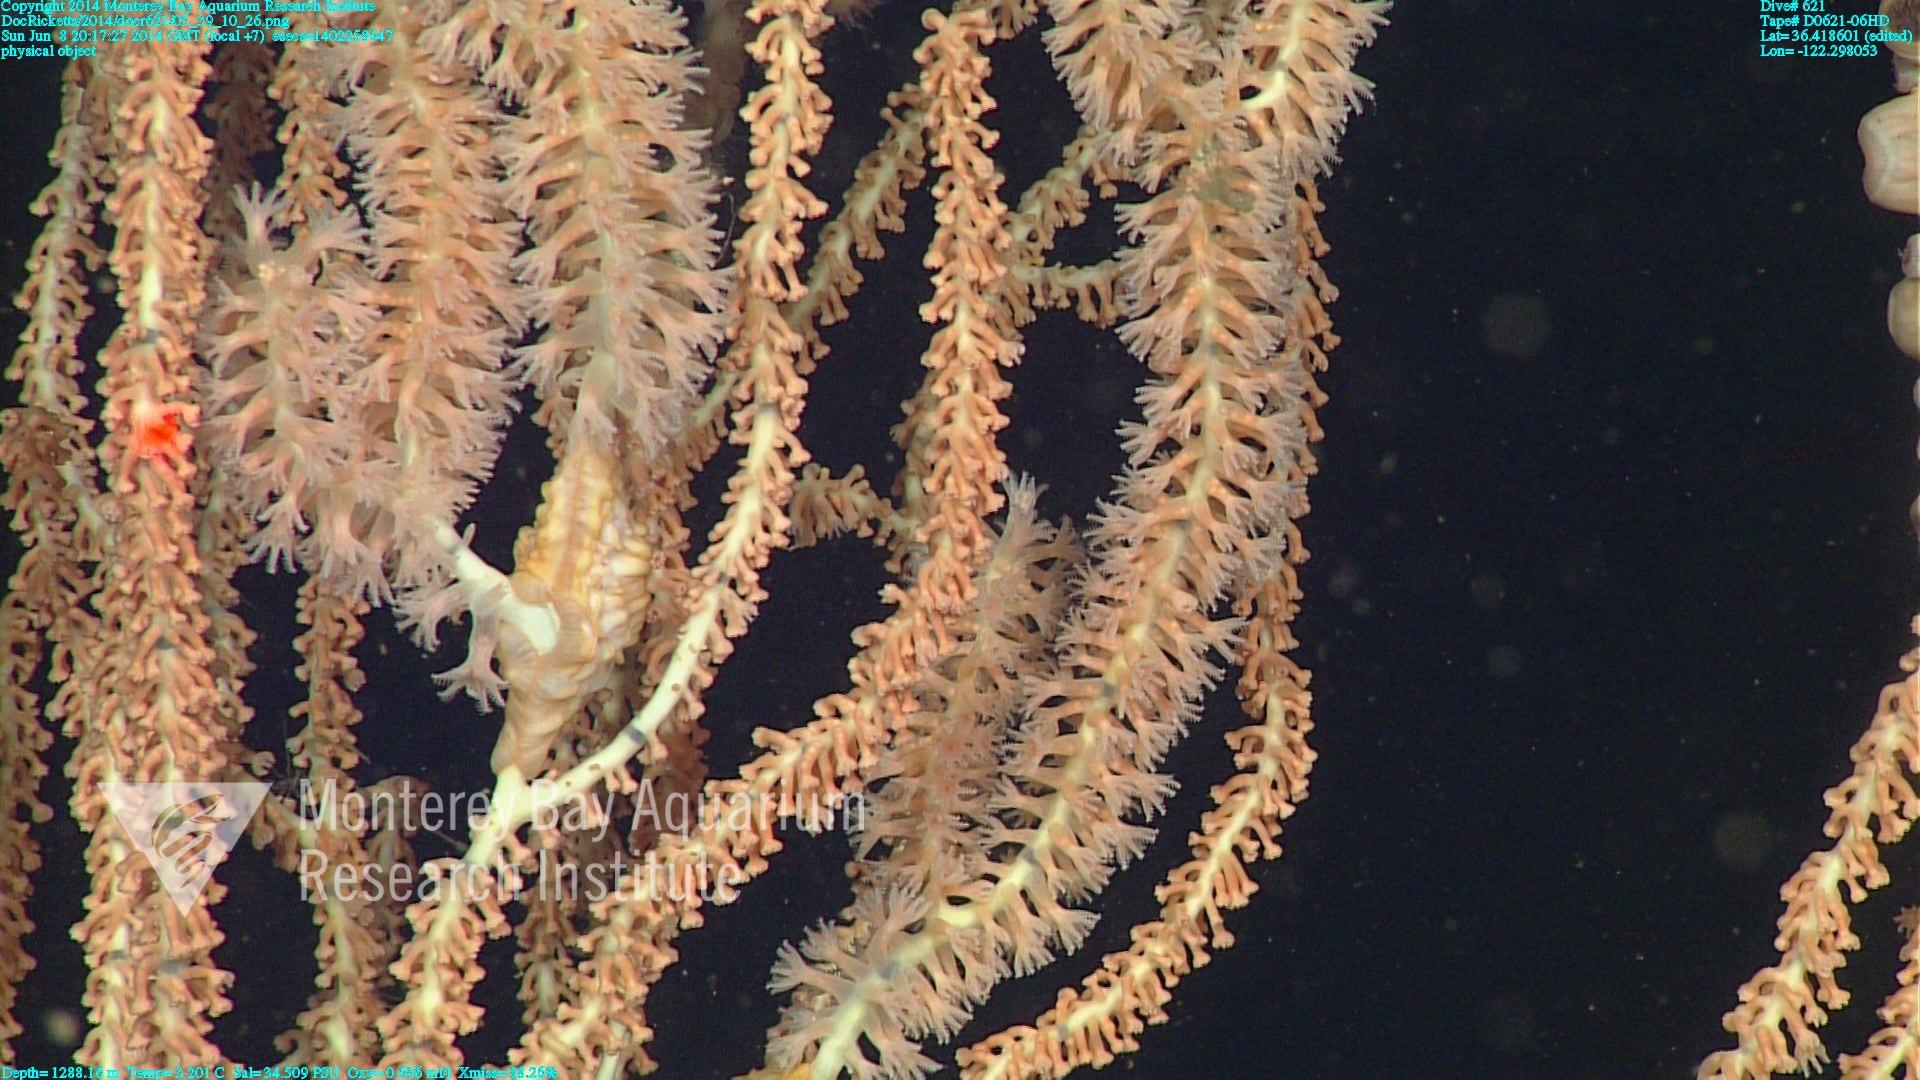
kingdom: Animalia
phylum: Cnidaria
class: Anthozoa
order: Scleralcyonacea
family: Keratoisididae
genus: Keratoisis
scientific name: Keratoisis
